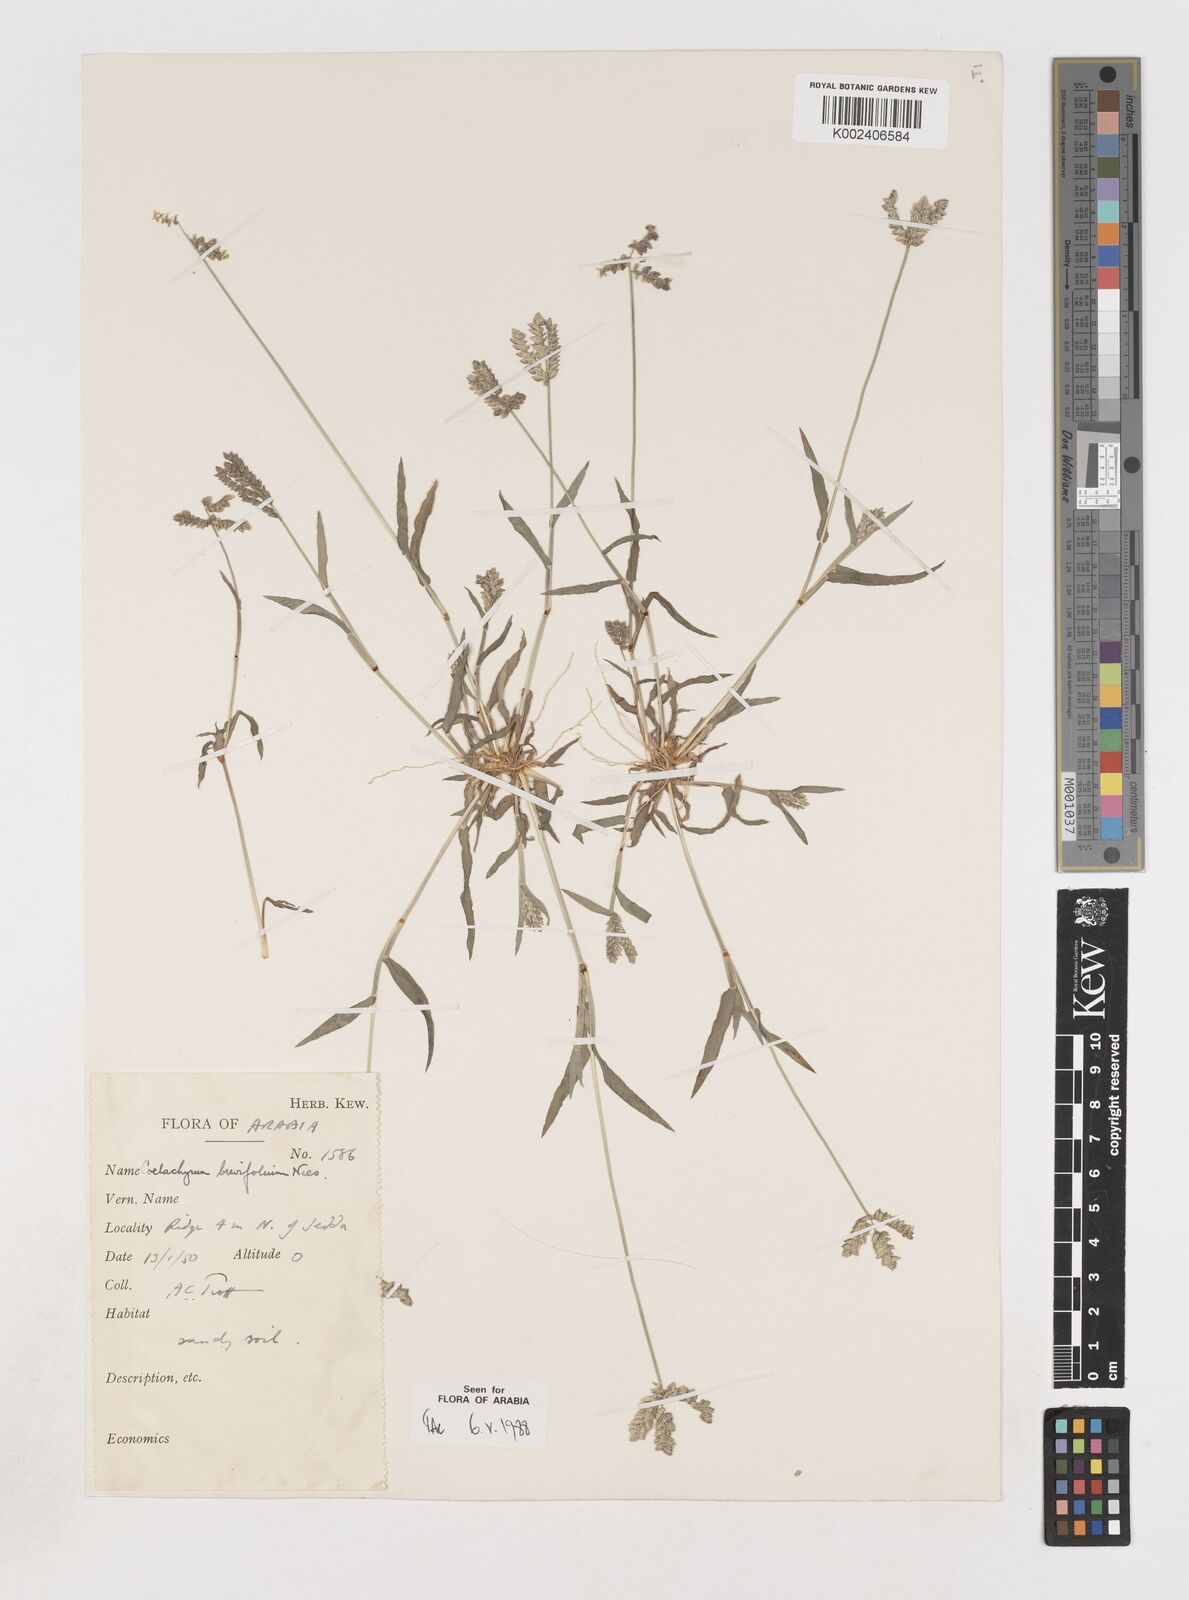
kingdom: Plantae
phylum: Tracheophyta
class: Liliopsida
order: Poales
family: Poaceae
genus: Coelachyrum
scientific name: Coelachyrum brevifolium
